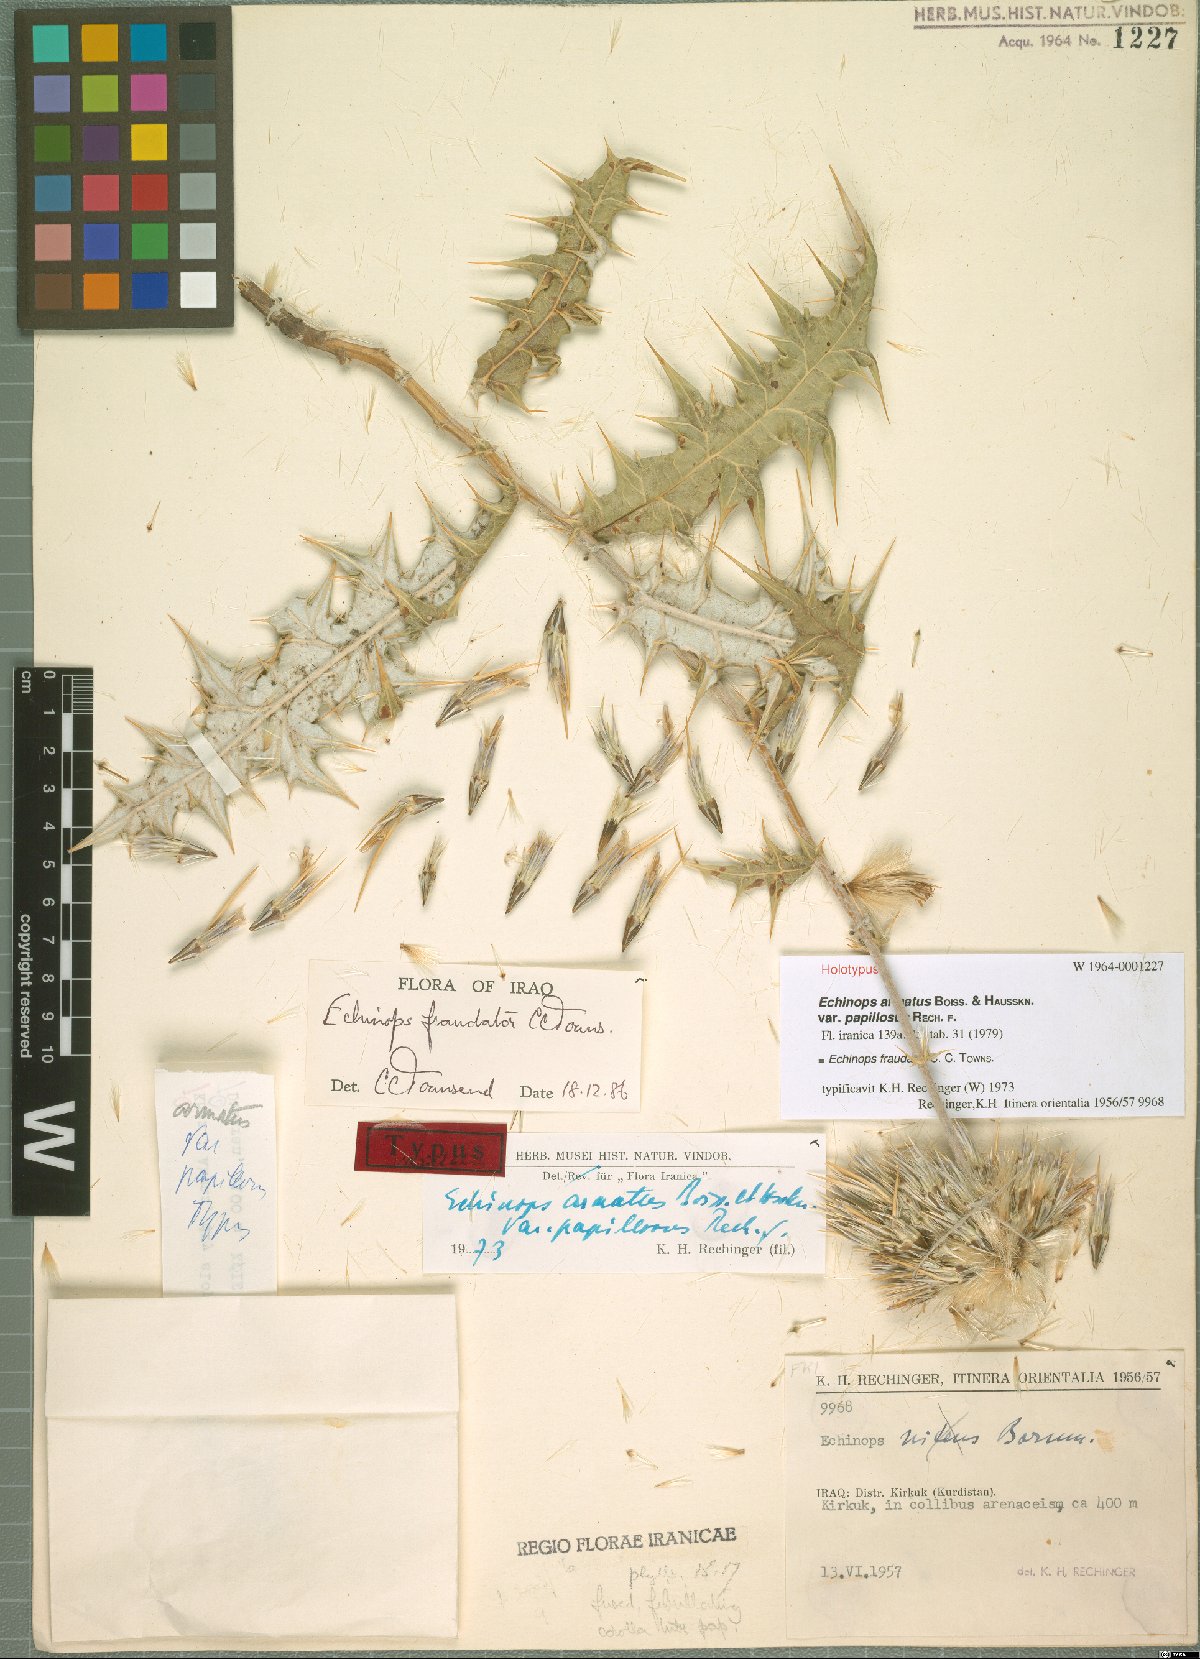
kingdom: Plantae
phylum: Tracheophyta
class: Magnoliopsida
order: Asterales
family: Asteraceae
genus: Echinops
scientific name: Echinops fraudator
